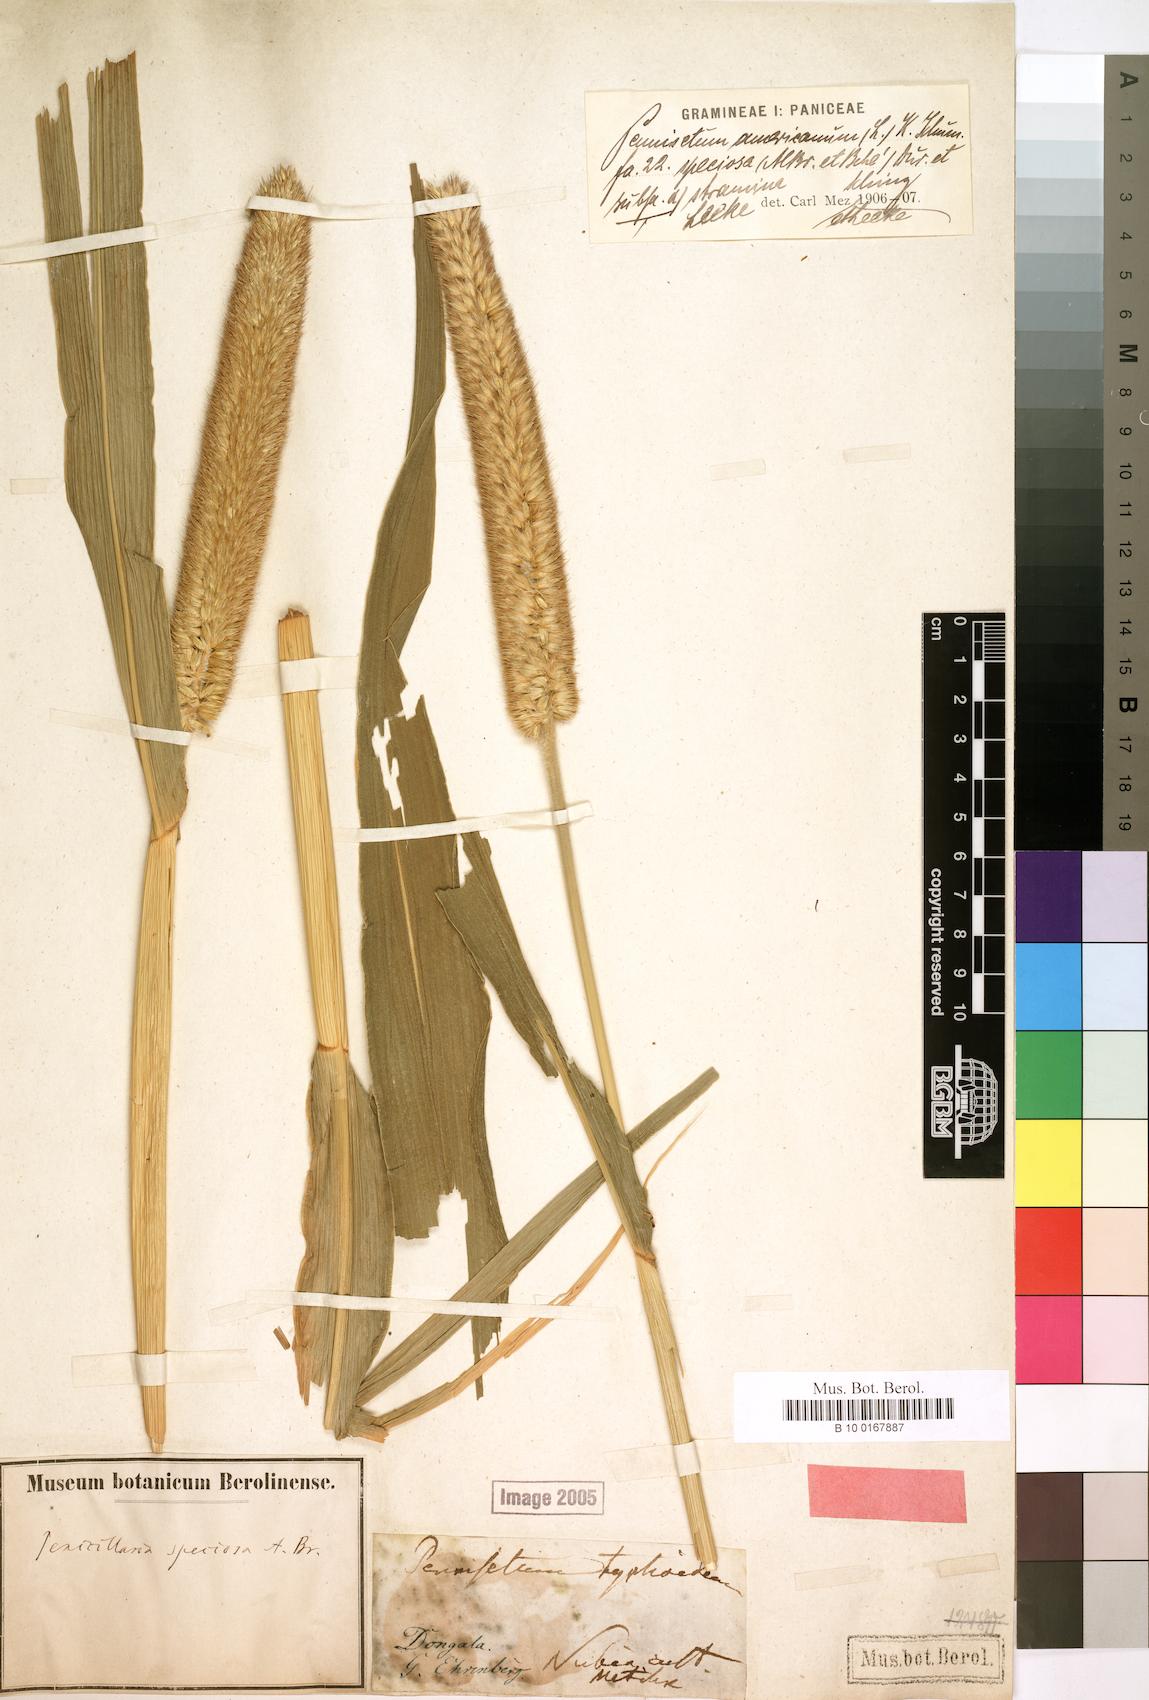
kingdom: Plantae
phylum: Tracheophyta
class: Liliopsida
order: Poales
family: Poaceae
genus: Cenchrus
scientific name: Cenchrus sieberianus
